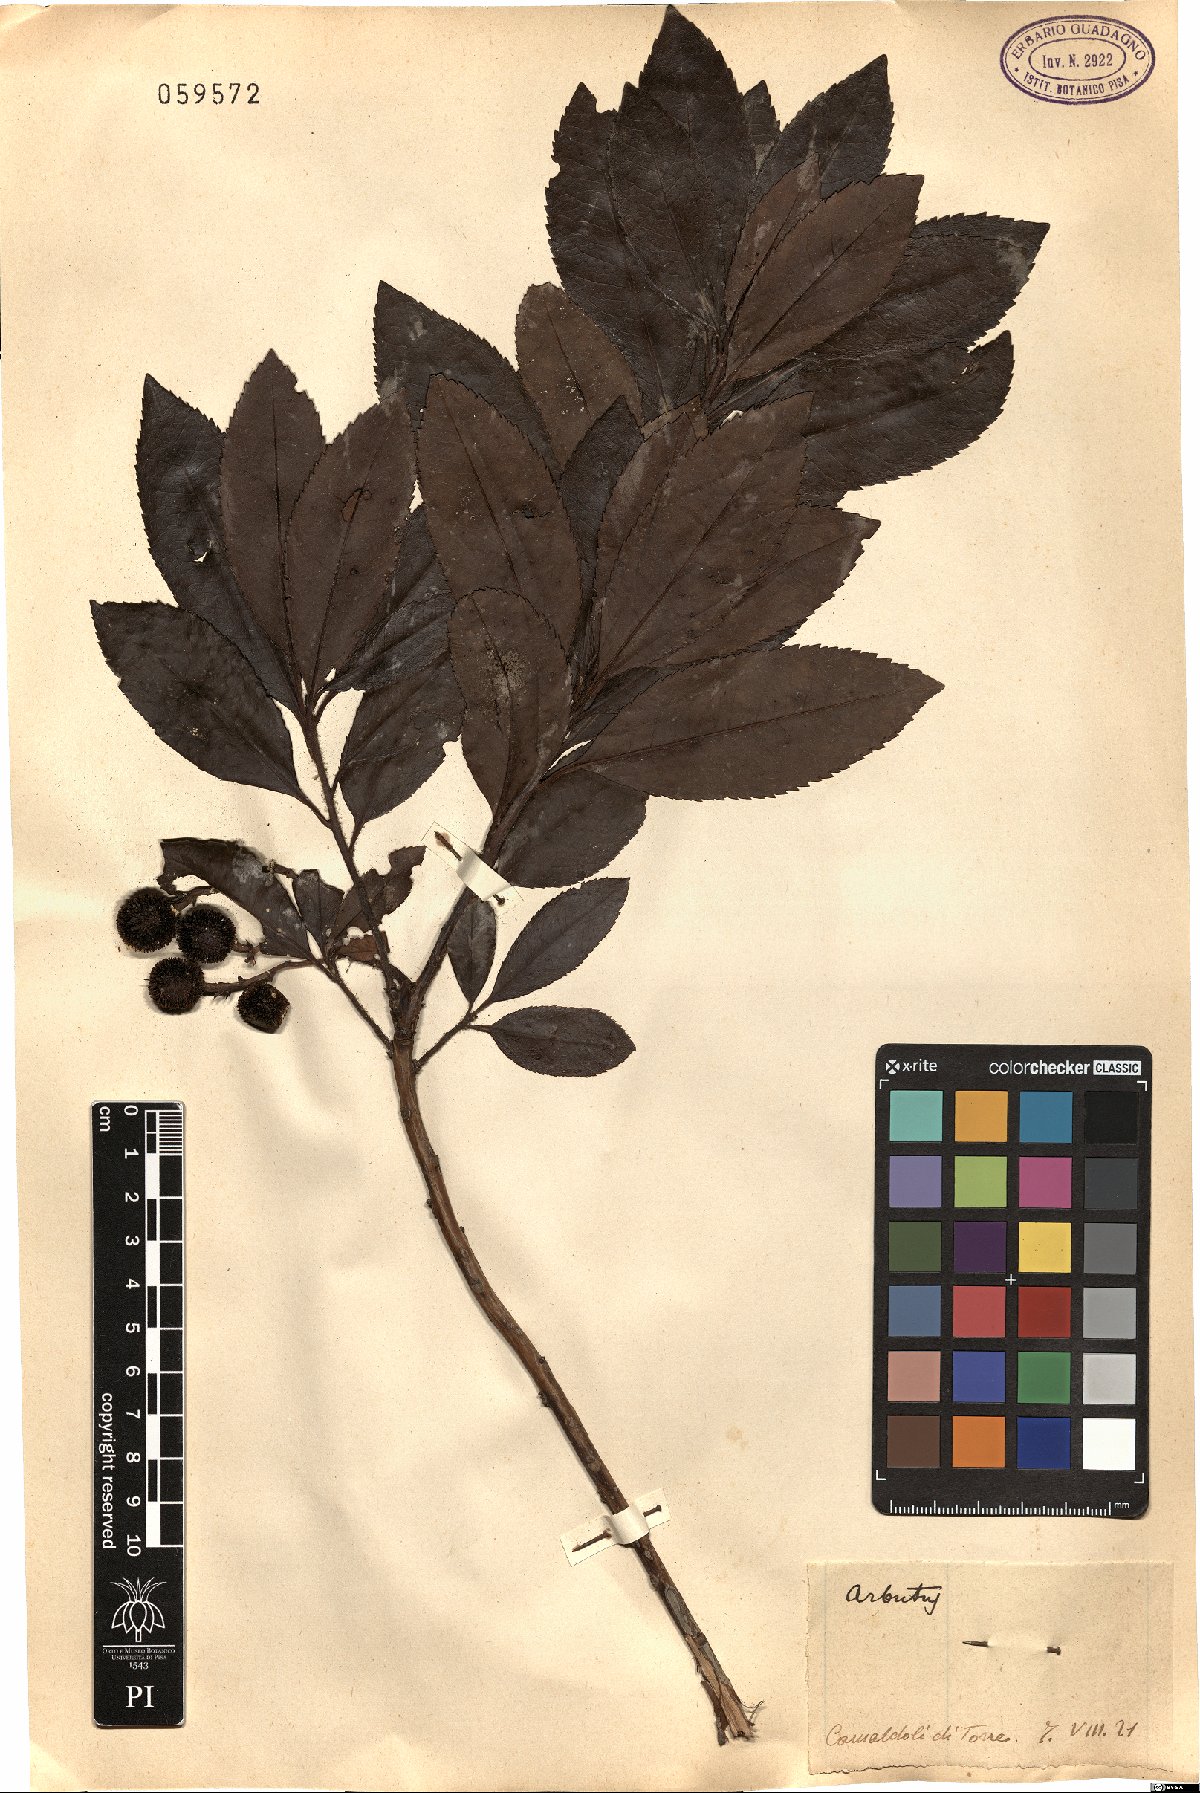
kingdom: Plantae
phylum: Tracheophyta
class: Magnoliopsida
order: Ericales
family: Ericaceae
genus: Arbutus
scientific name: Arbutus unedo
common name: Strawberry-tree
